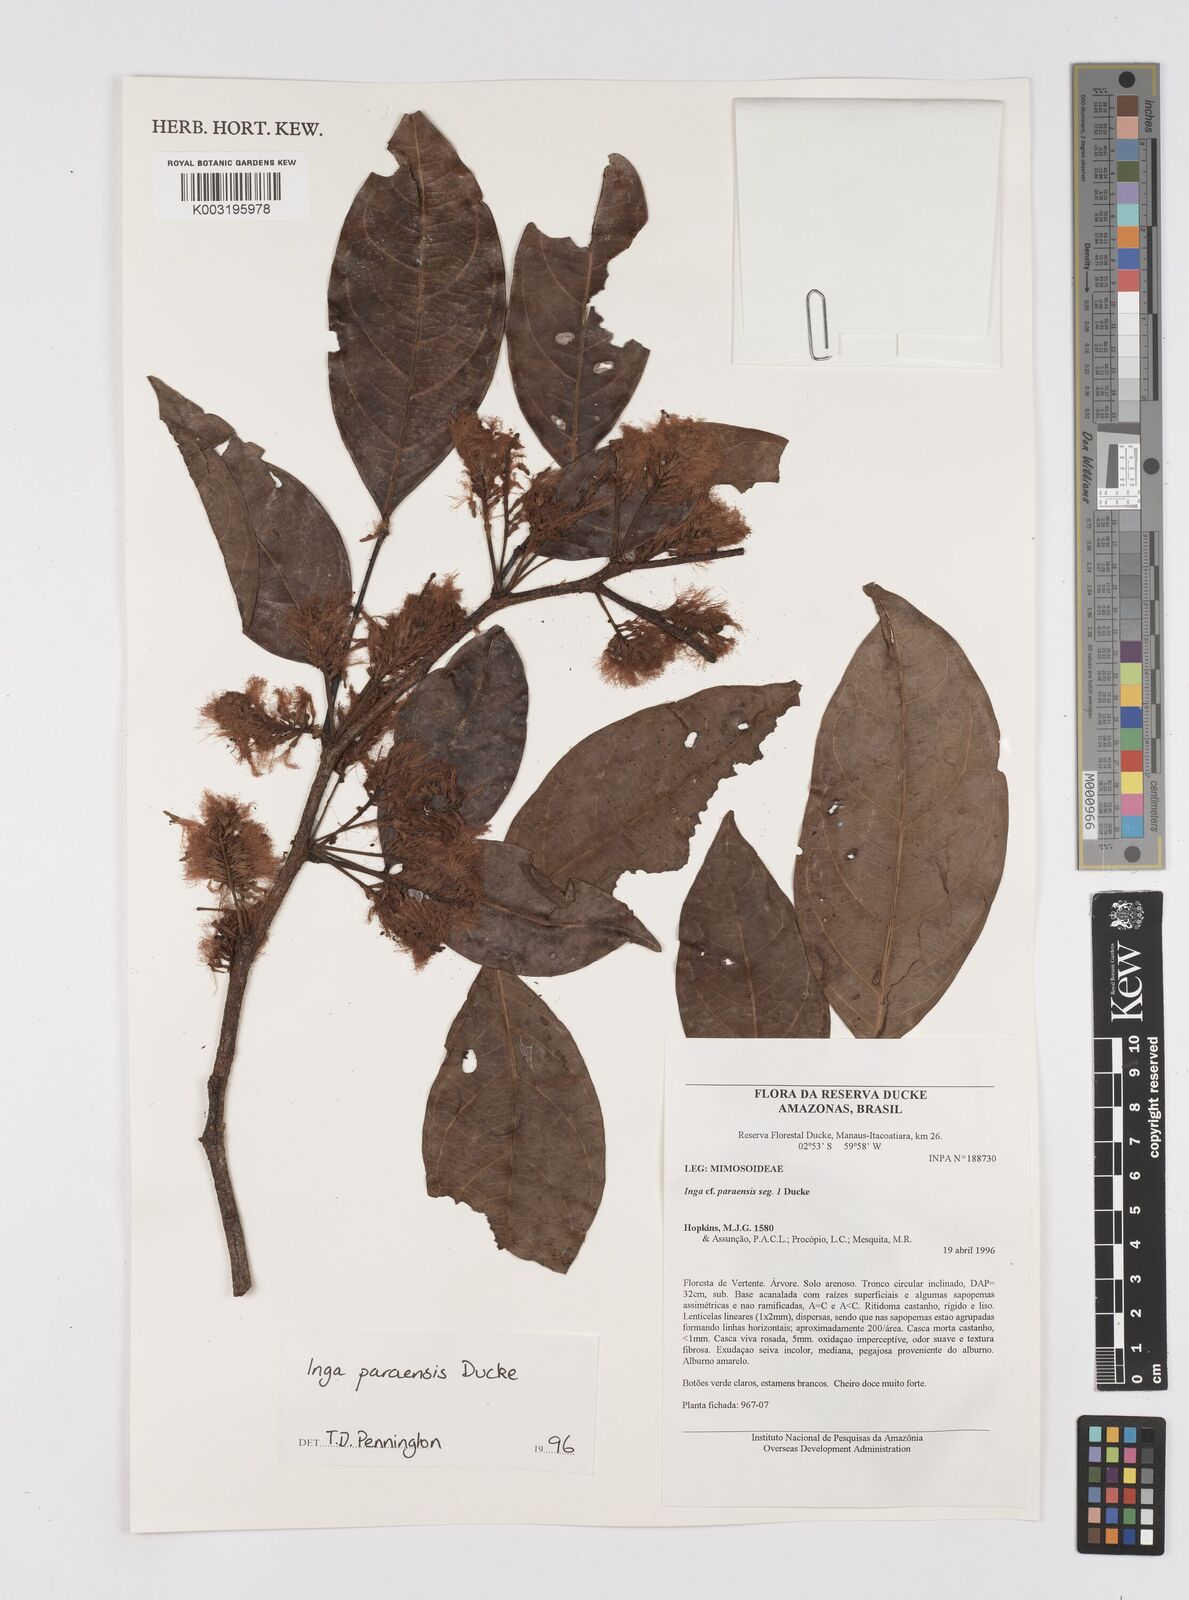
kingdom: Plantae
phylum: Tracheophyta
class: Magnoliopsida
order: Fabales
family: Fabaceae
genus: Inga
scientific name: Inga paraensis
